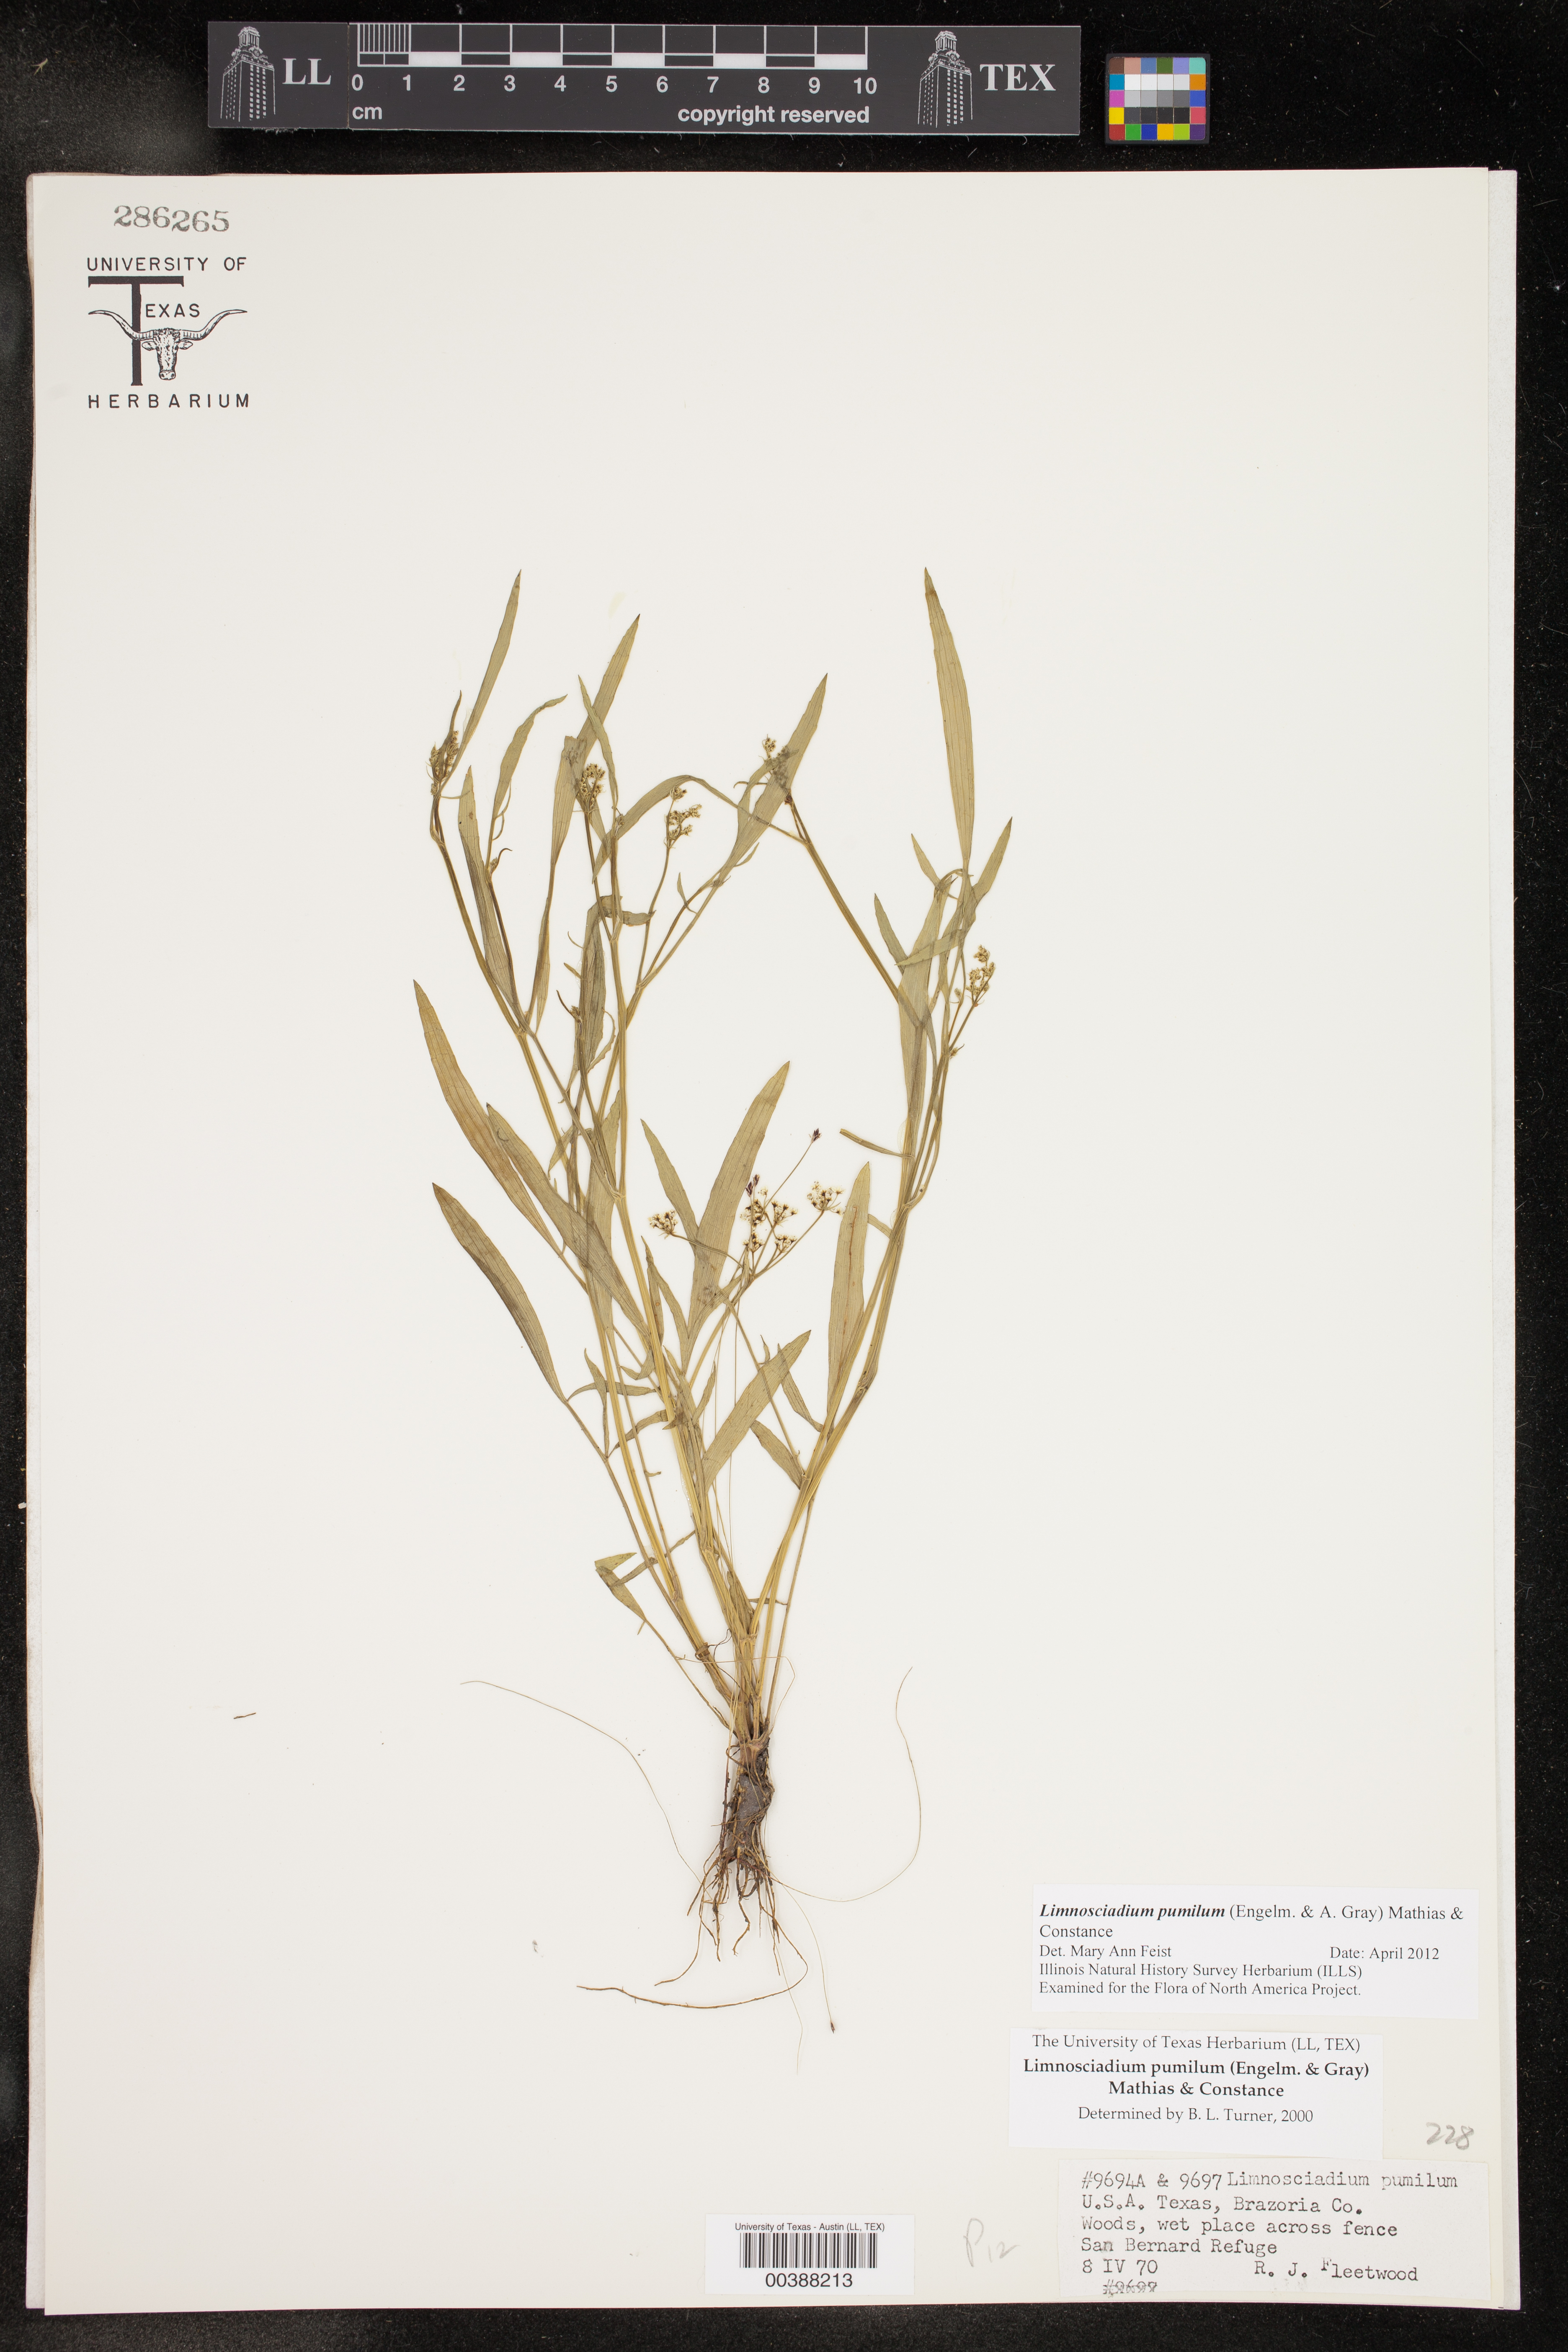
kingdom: Plantae
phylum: Tracheophyta
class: Magnoliopsida
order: Apiales
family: Apiaceae
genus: Limnosciadium
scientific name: Limnosciadium pinnatum
